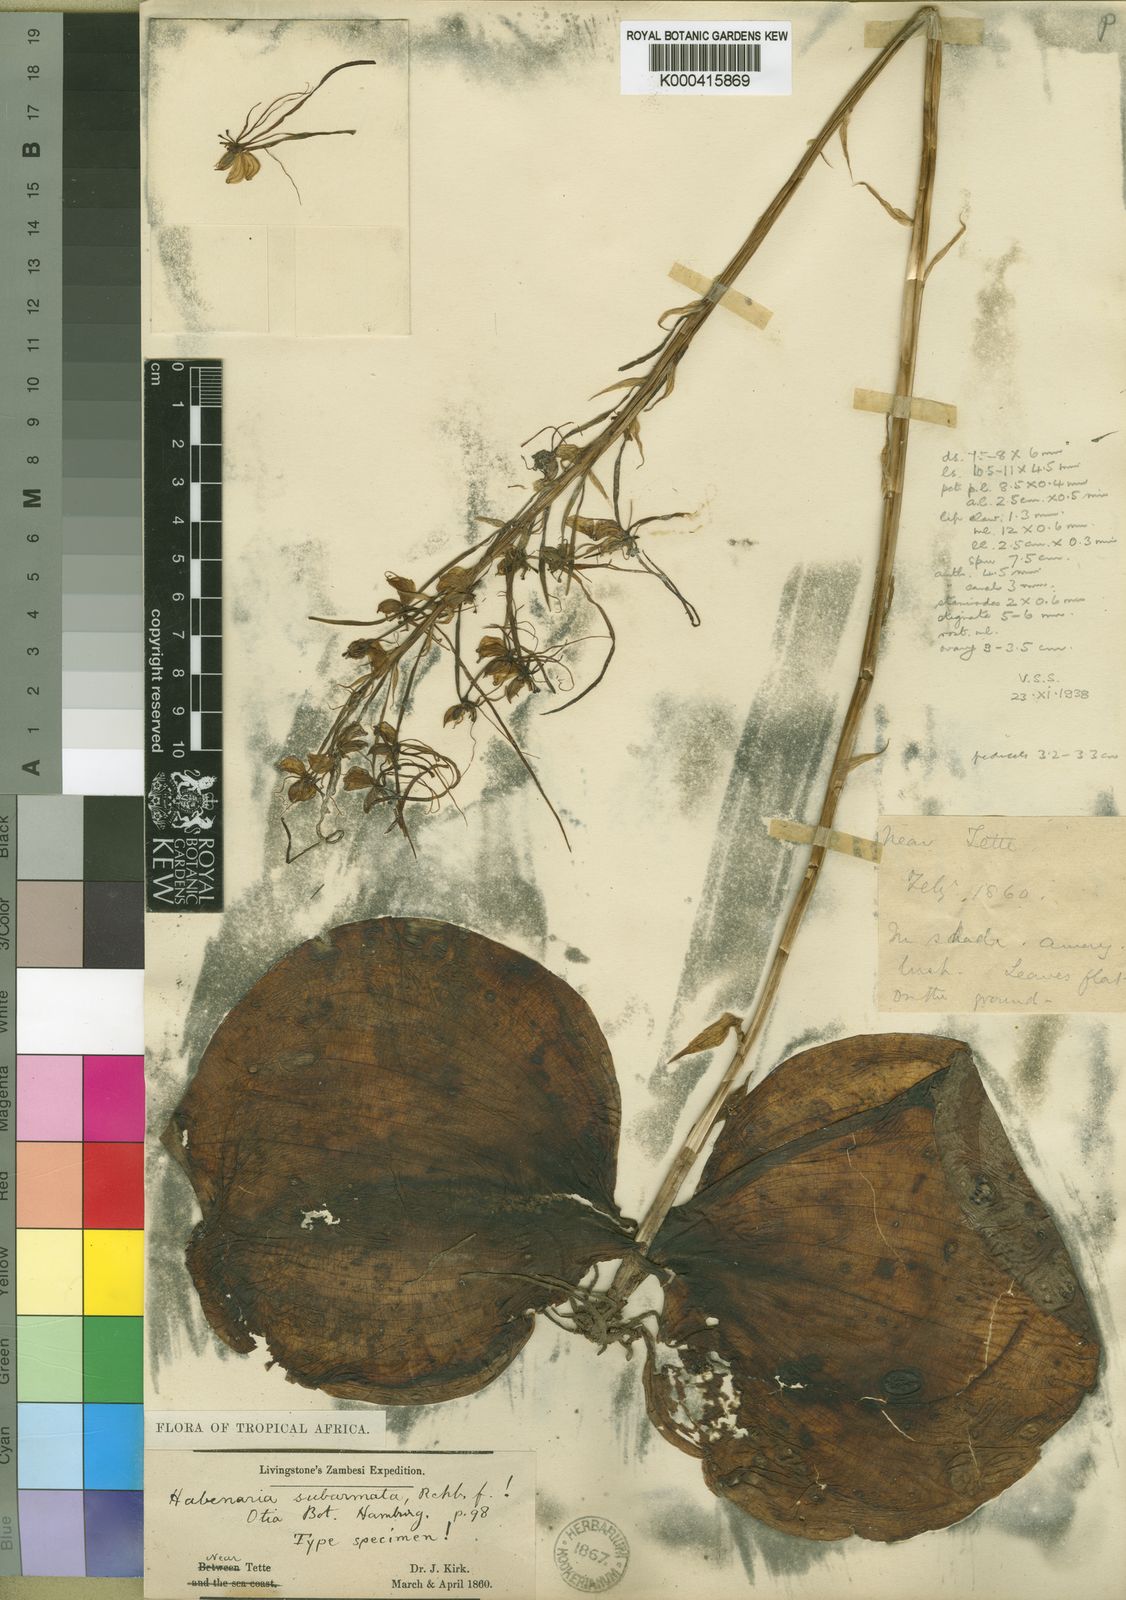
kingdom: Plantae
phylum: Tracheophyta
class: Liliopsida
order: Asparagales
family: Orchidaceae
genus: Habenaria
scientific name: Habenaria subarmata
